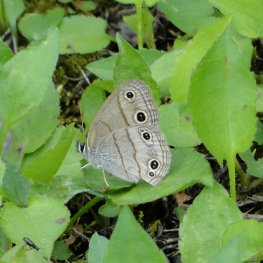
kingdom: Animalia
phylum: Arthropoda
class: Insecta
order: Lepidoptera
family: Nymphalidae
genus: Euptychia
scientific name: Euptychia cymela
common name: Little Wood Satyr
